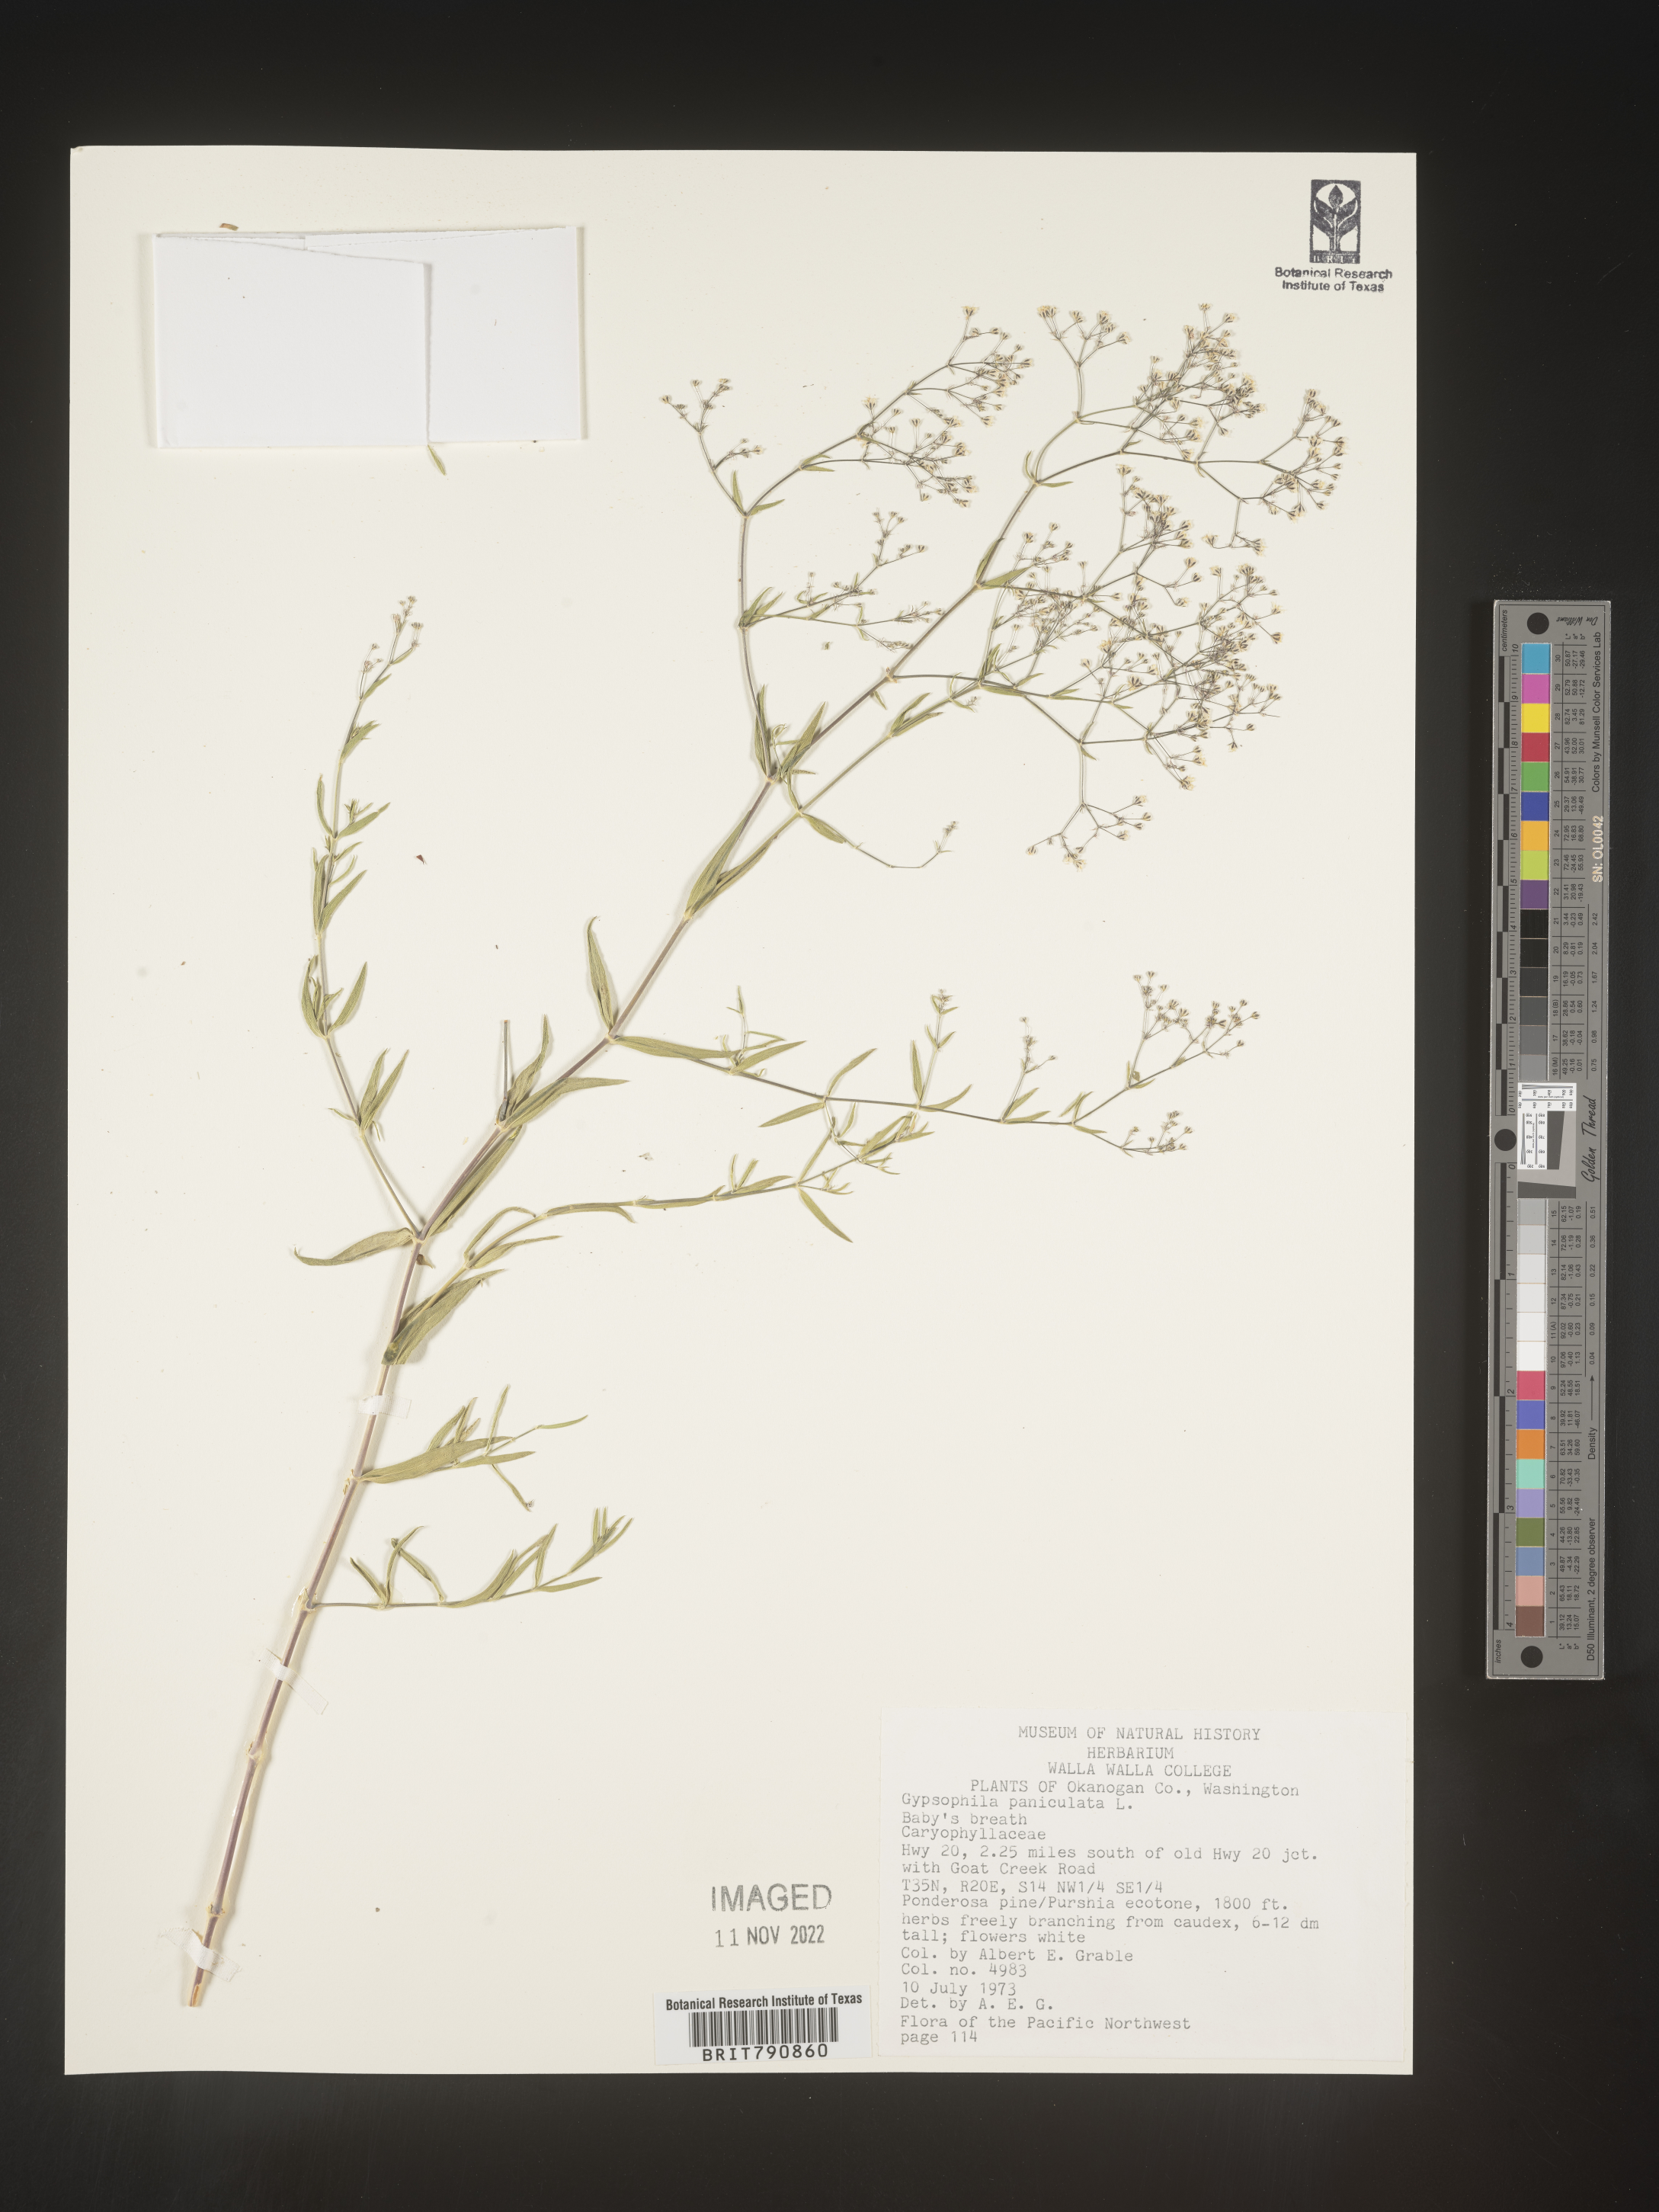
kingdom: Plantae
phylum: Tracheophyta
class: Magnoliopsida
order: Caryophyllales
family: Caryophyllaceae
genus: Gypsophila
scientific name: Gypsophila
